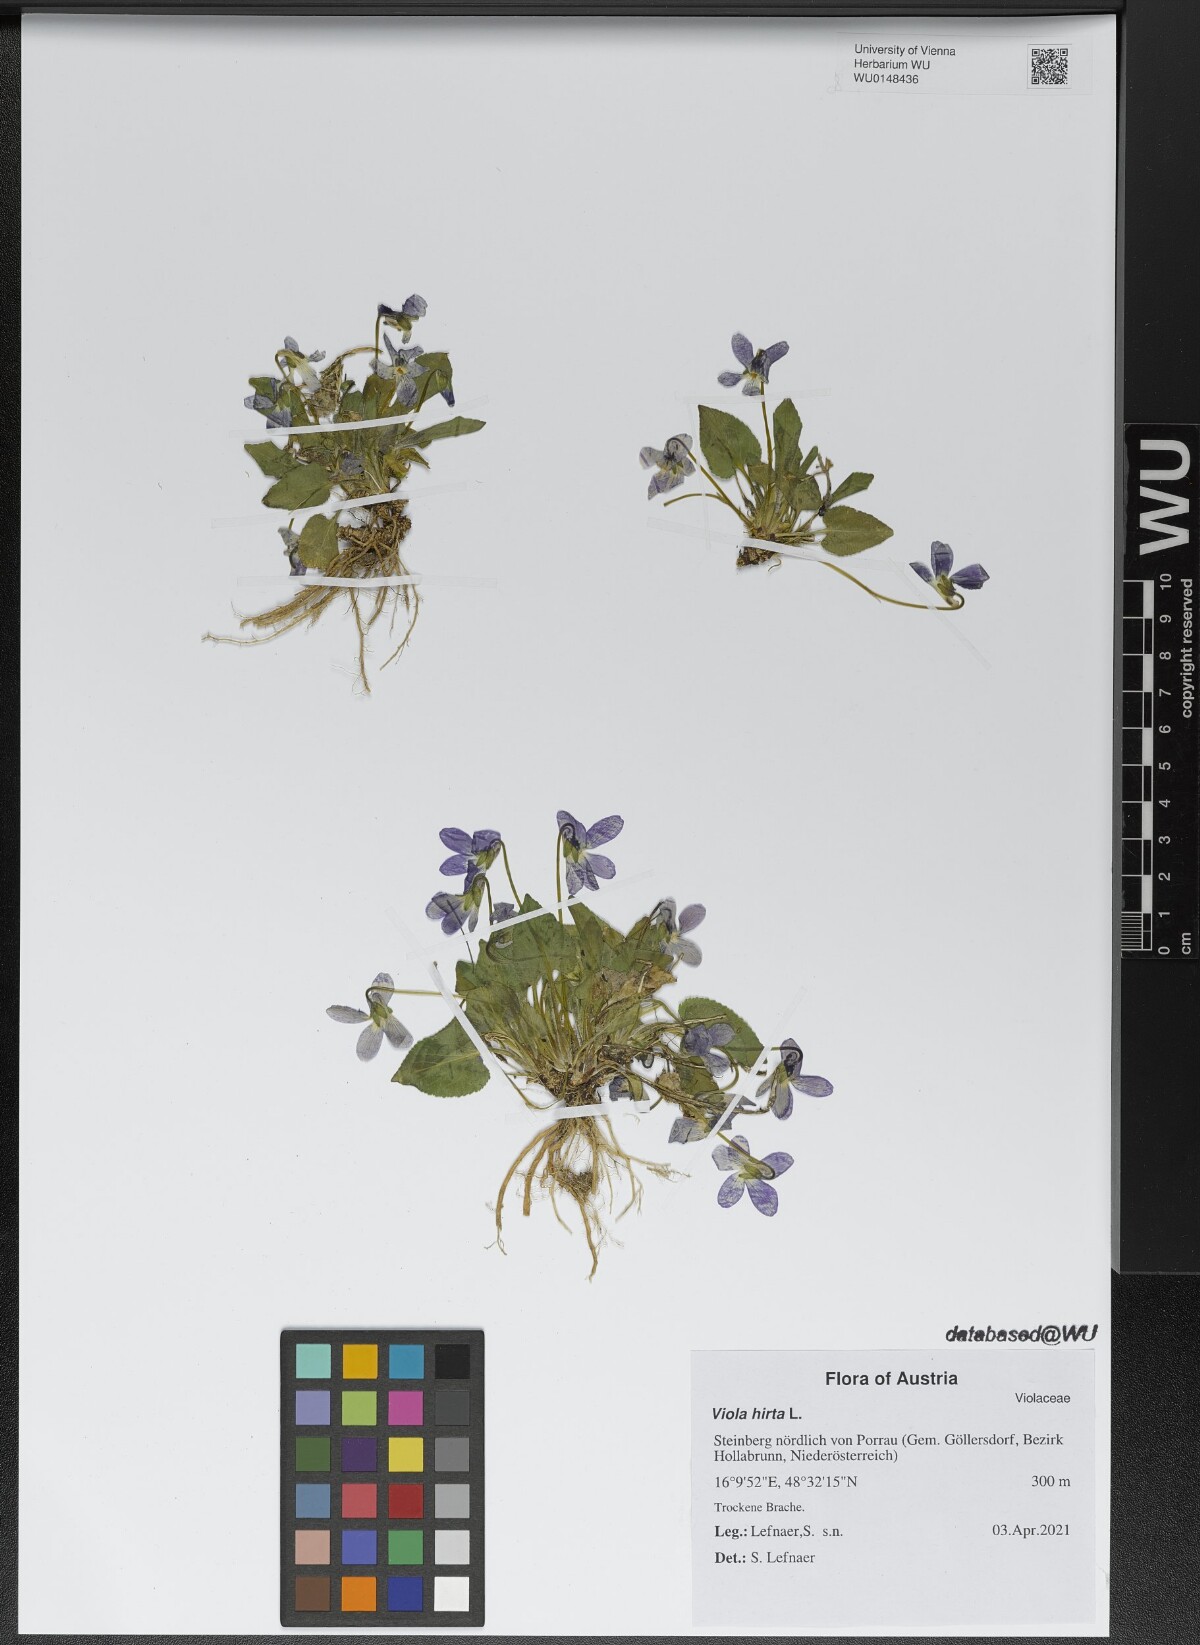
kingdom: Plantae
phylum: Tracheophyta
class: Magnoliopsida
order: Malpighiales
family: Violaceae
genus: Viola
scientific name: Viola hirta
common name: Hairy violet
